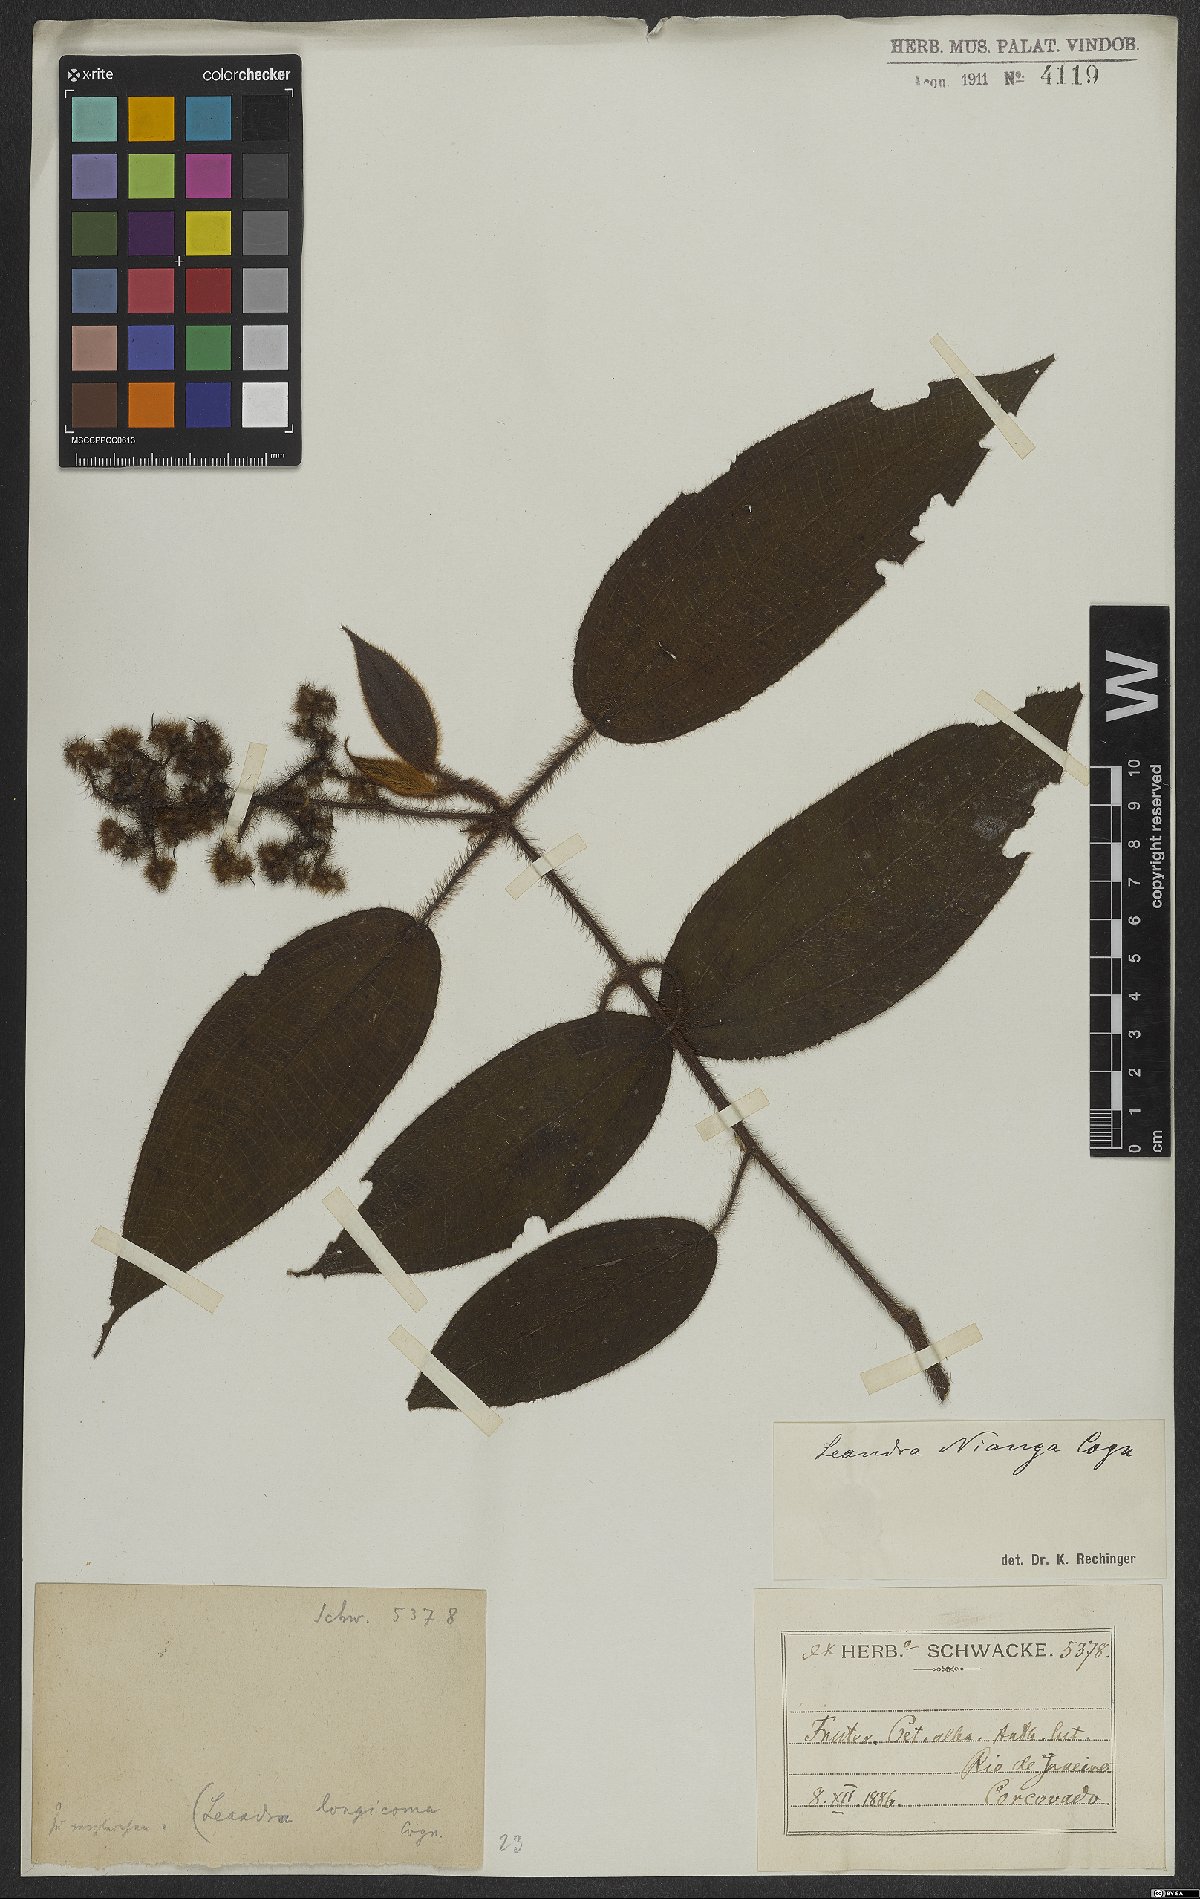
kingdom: Plantae
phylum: Tracheophyta
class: Magnoliopsida
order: Myrtales
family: Melastomataceae
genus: Miconia
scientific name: Miconia nianga
